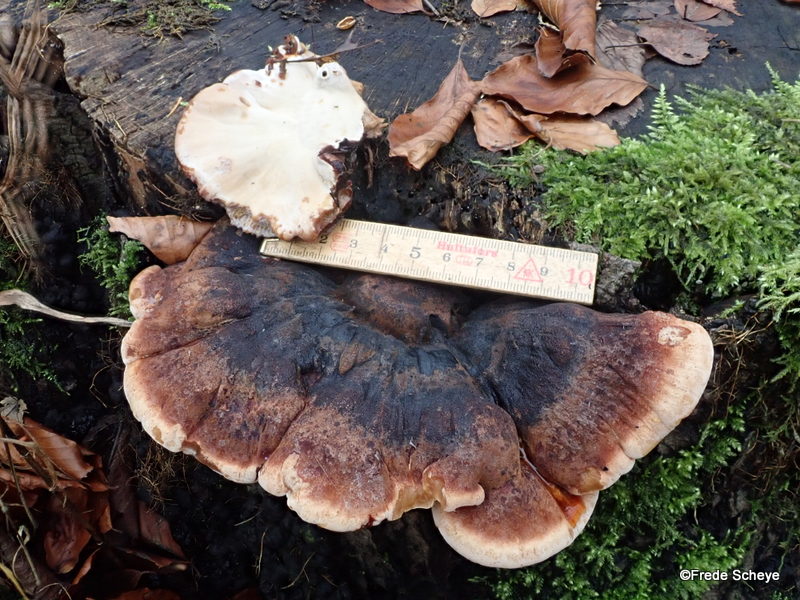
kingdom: Fungi
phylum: Basidiomycota
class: Agaricomycetes
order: Polyporales
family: Ischnodermataceae
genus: Ischnoderma
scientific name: Ischnoderma resinosum
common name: løv-tjæreporesvamp
